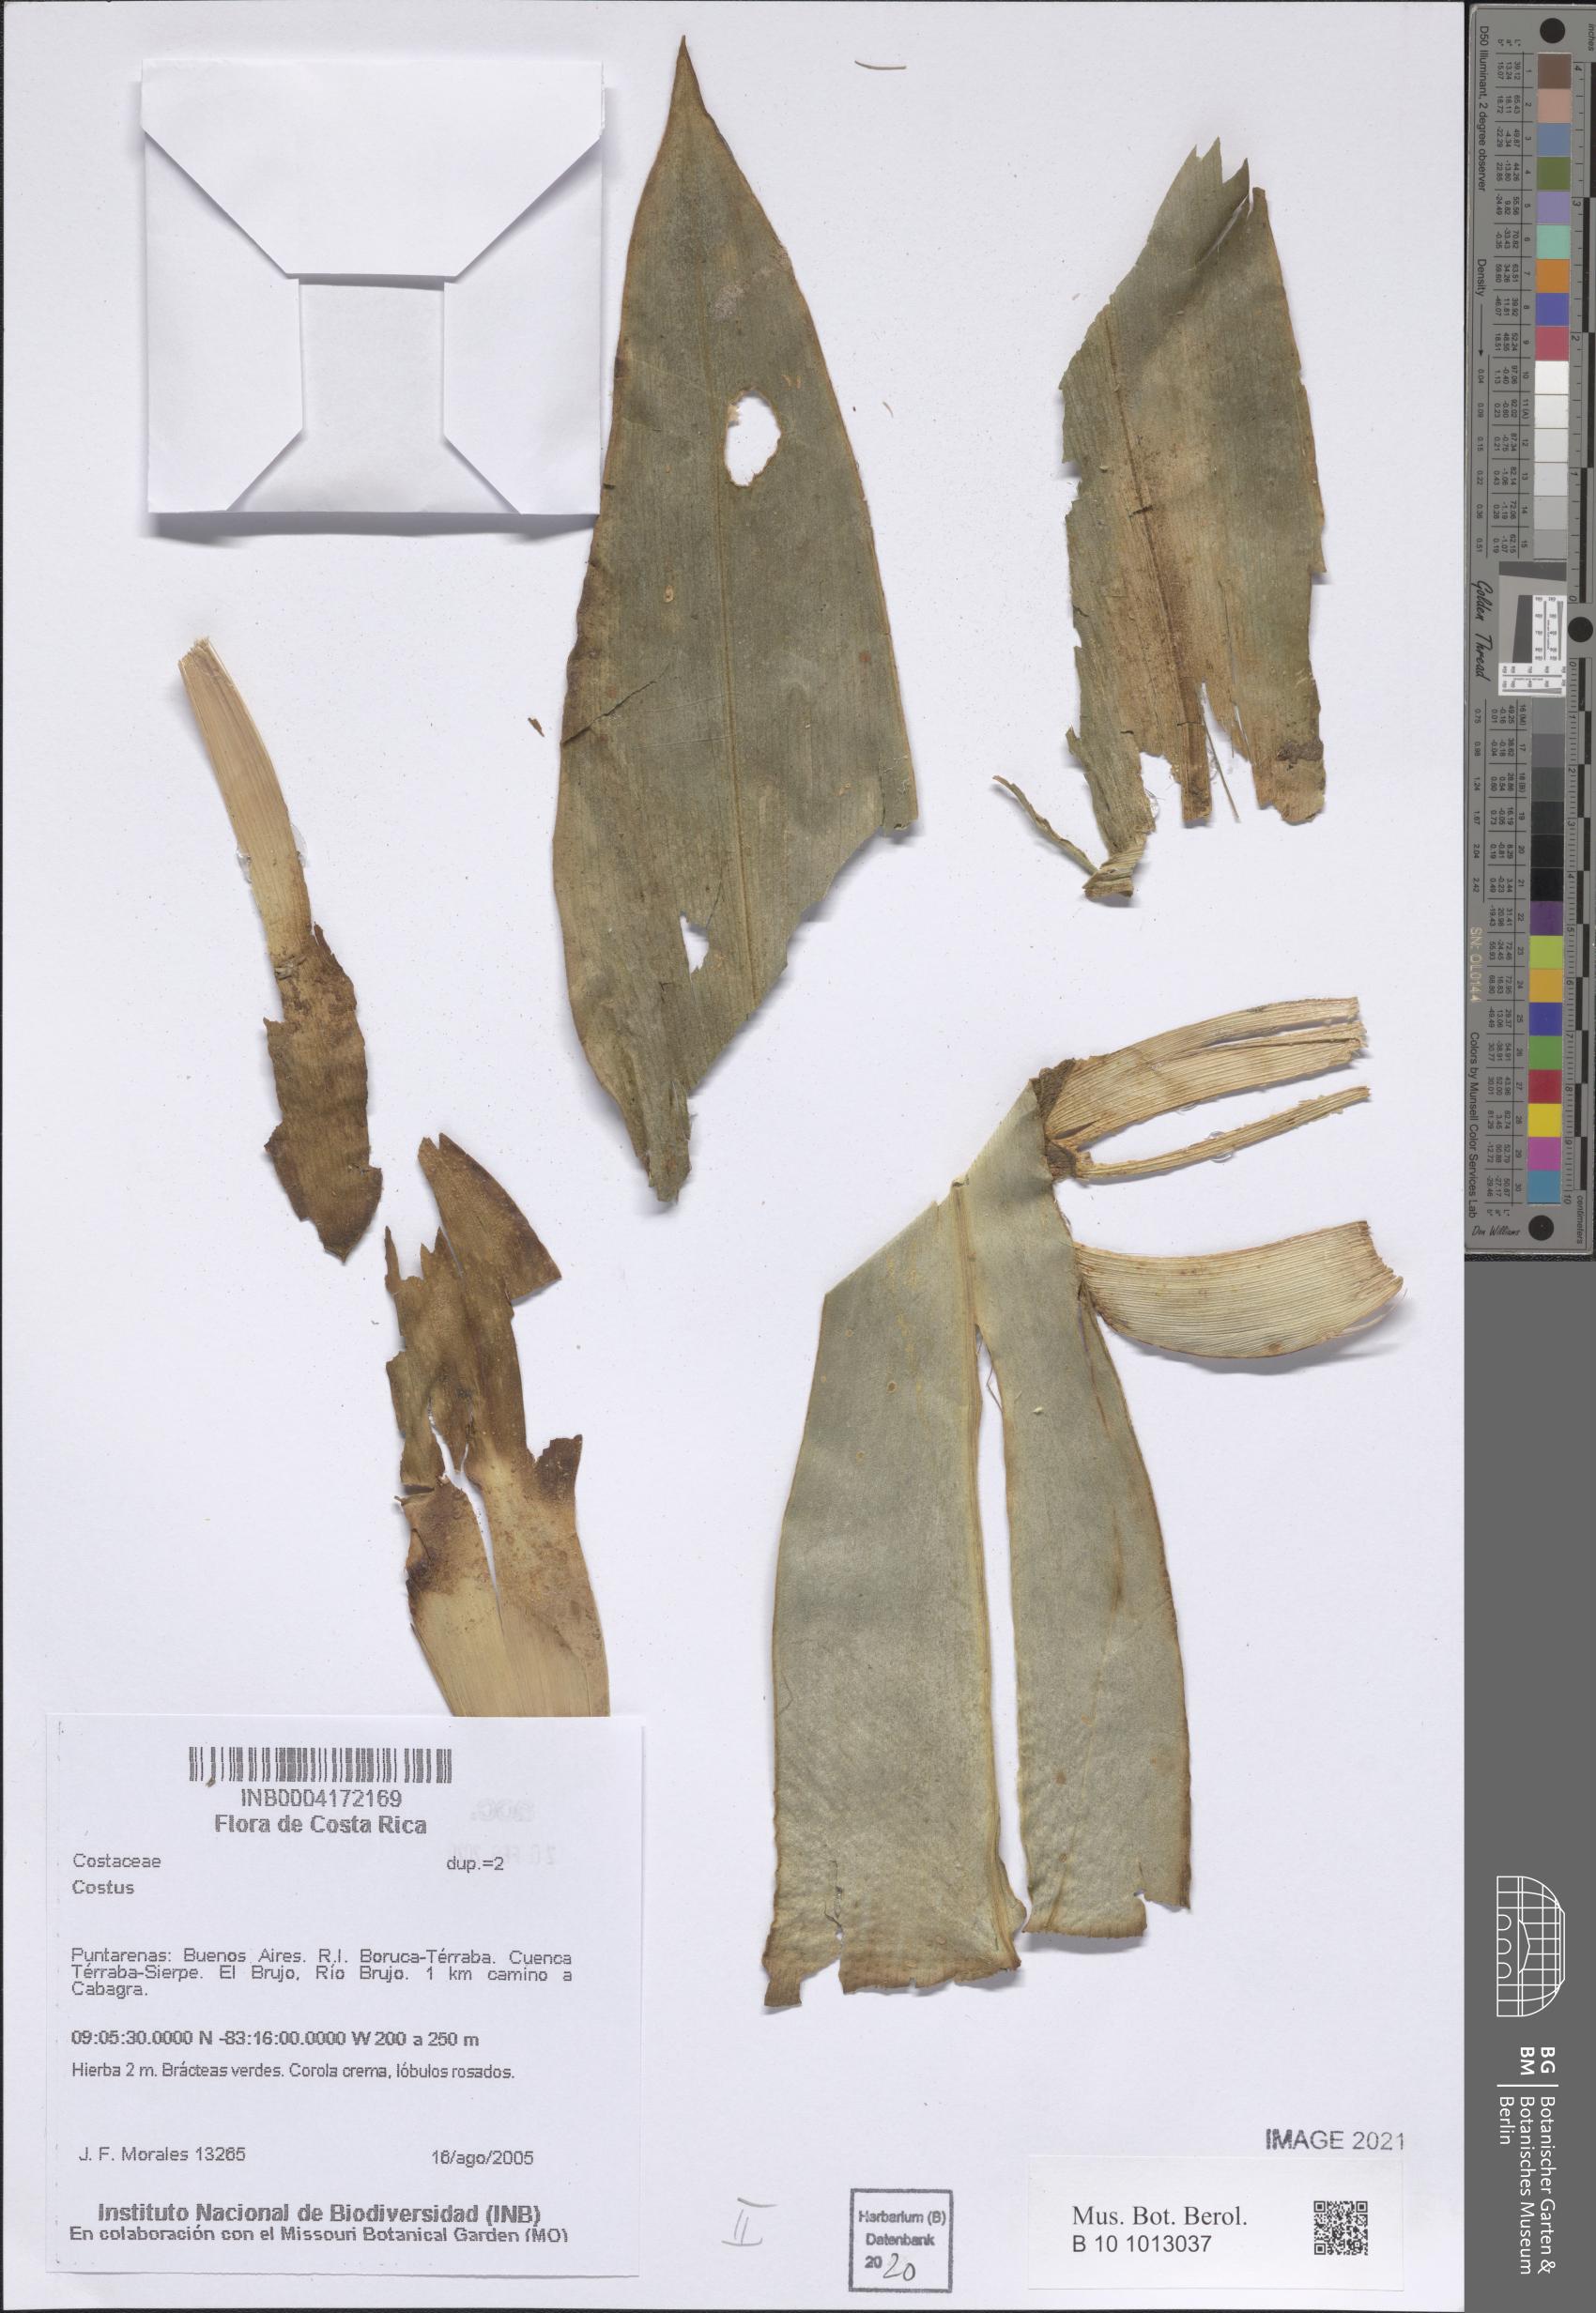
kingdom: Plantae
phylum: Tracheophyta
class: Liliopsida
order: Zingiberales
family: Costaceae
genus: Costus
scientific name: Costus
